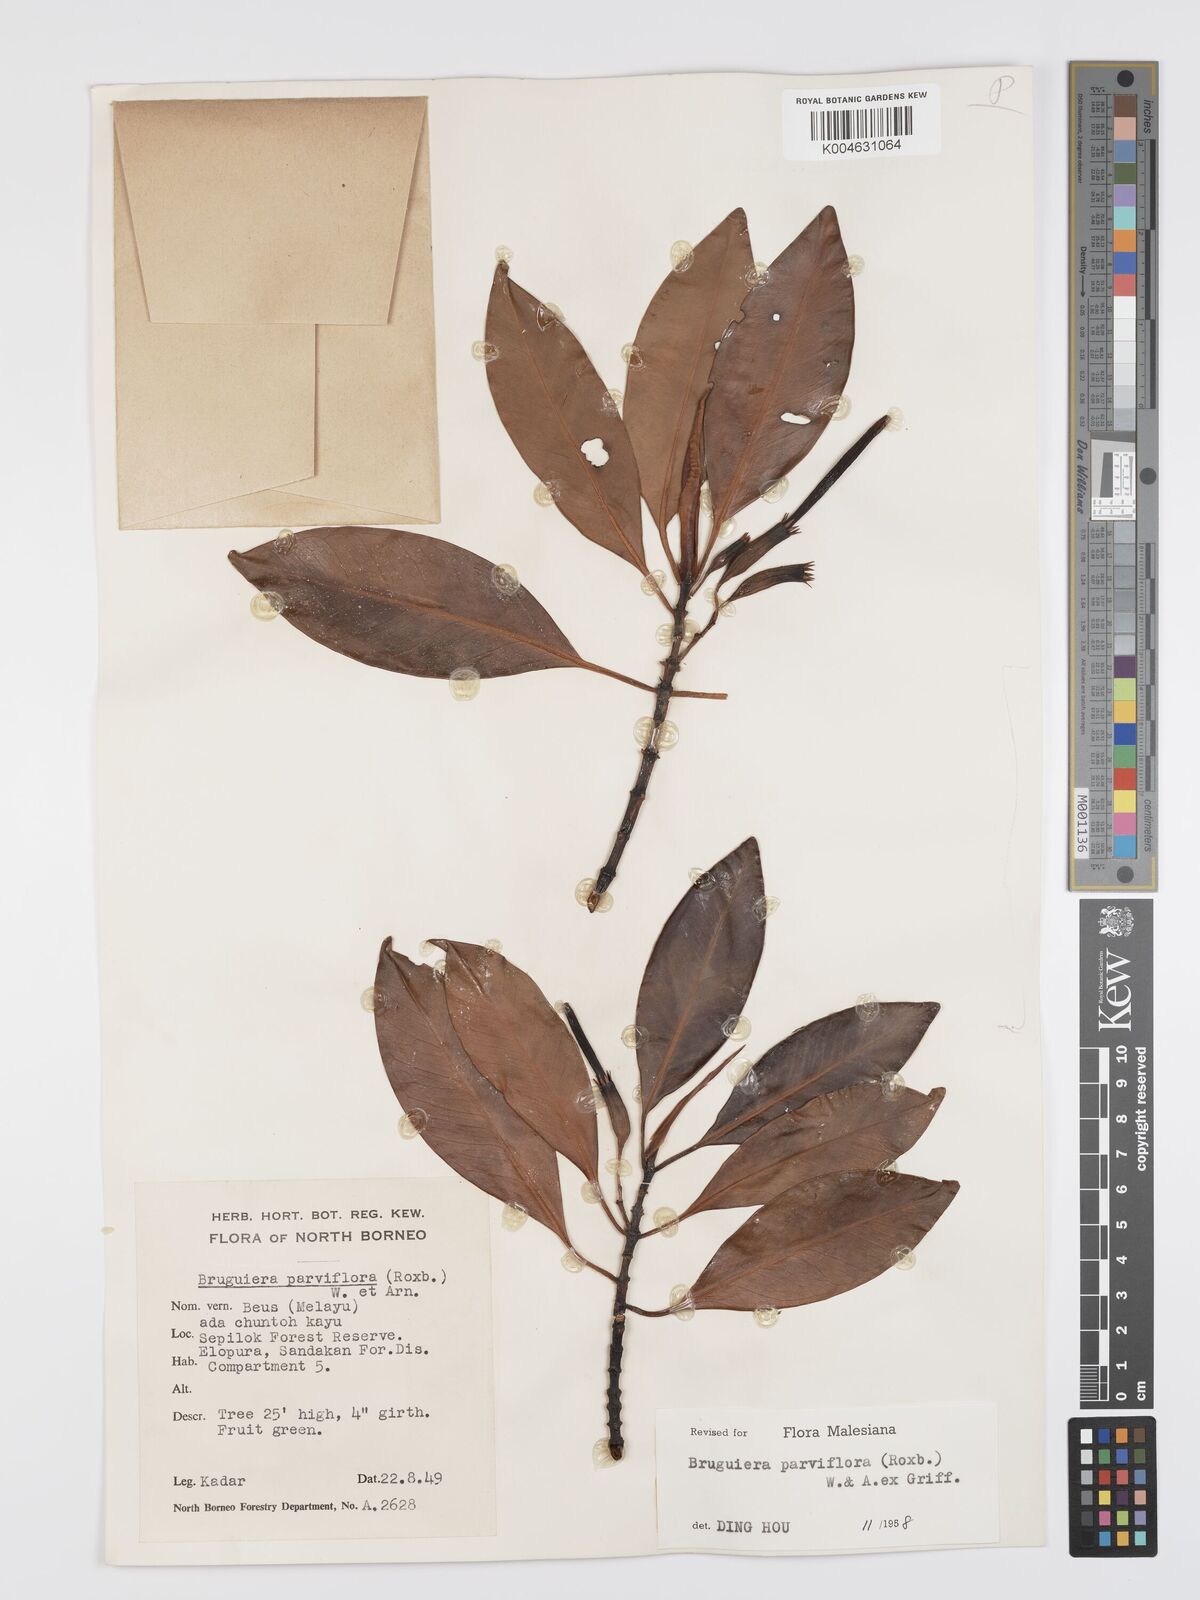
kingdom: Plantae
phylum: Tracheophyta
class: Magnoliopsida
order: Malpighiales
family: Rhizophoraceae
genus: Bruguiera
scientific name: Bruguiera parviflora
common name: Smallflower bruguiera
